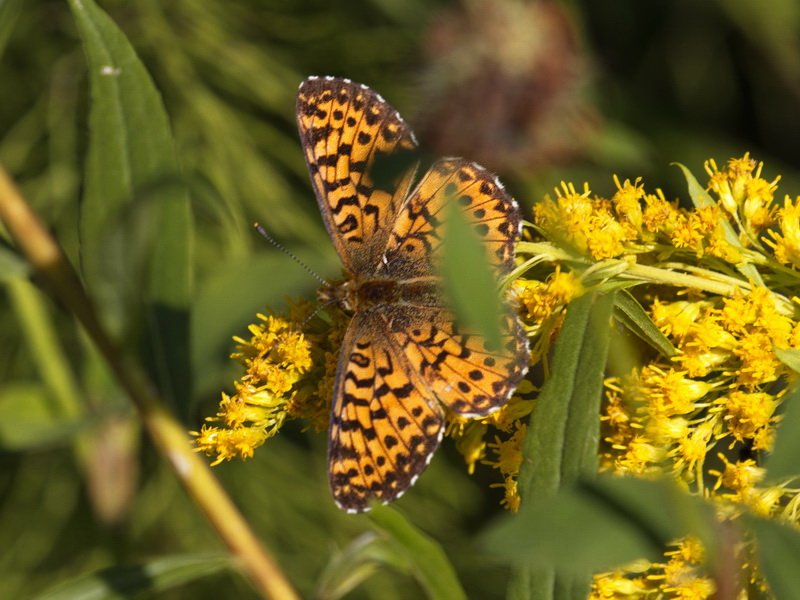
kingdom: Animalia
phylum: Arthropoda
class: Insecta
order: Lepidoptera
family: Nymphalidae
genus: Boloria
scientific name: Boloria chariclea
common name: Arctic Fritillary
